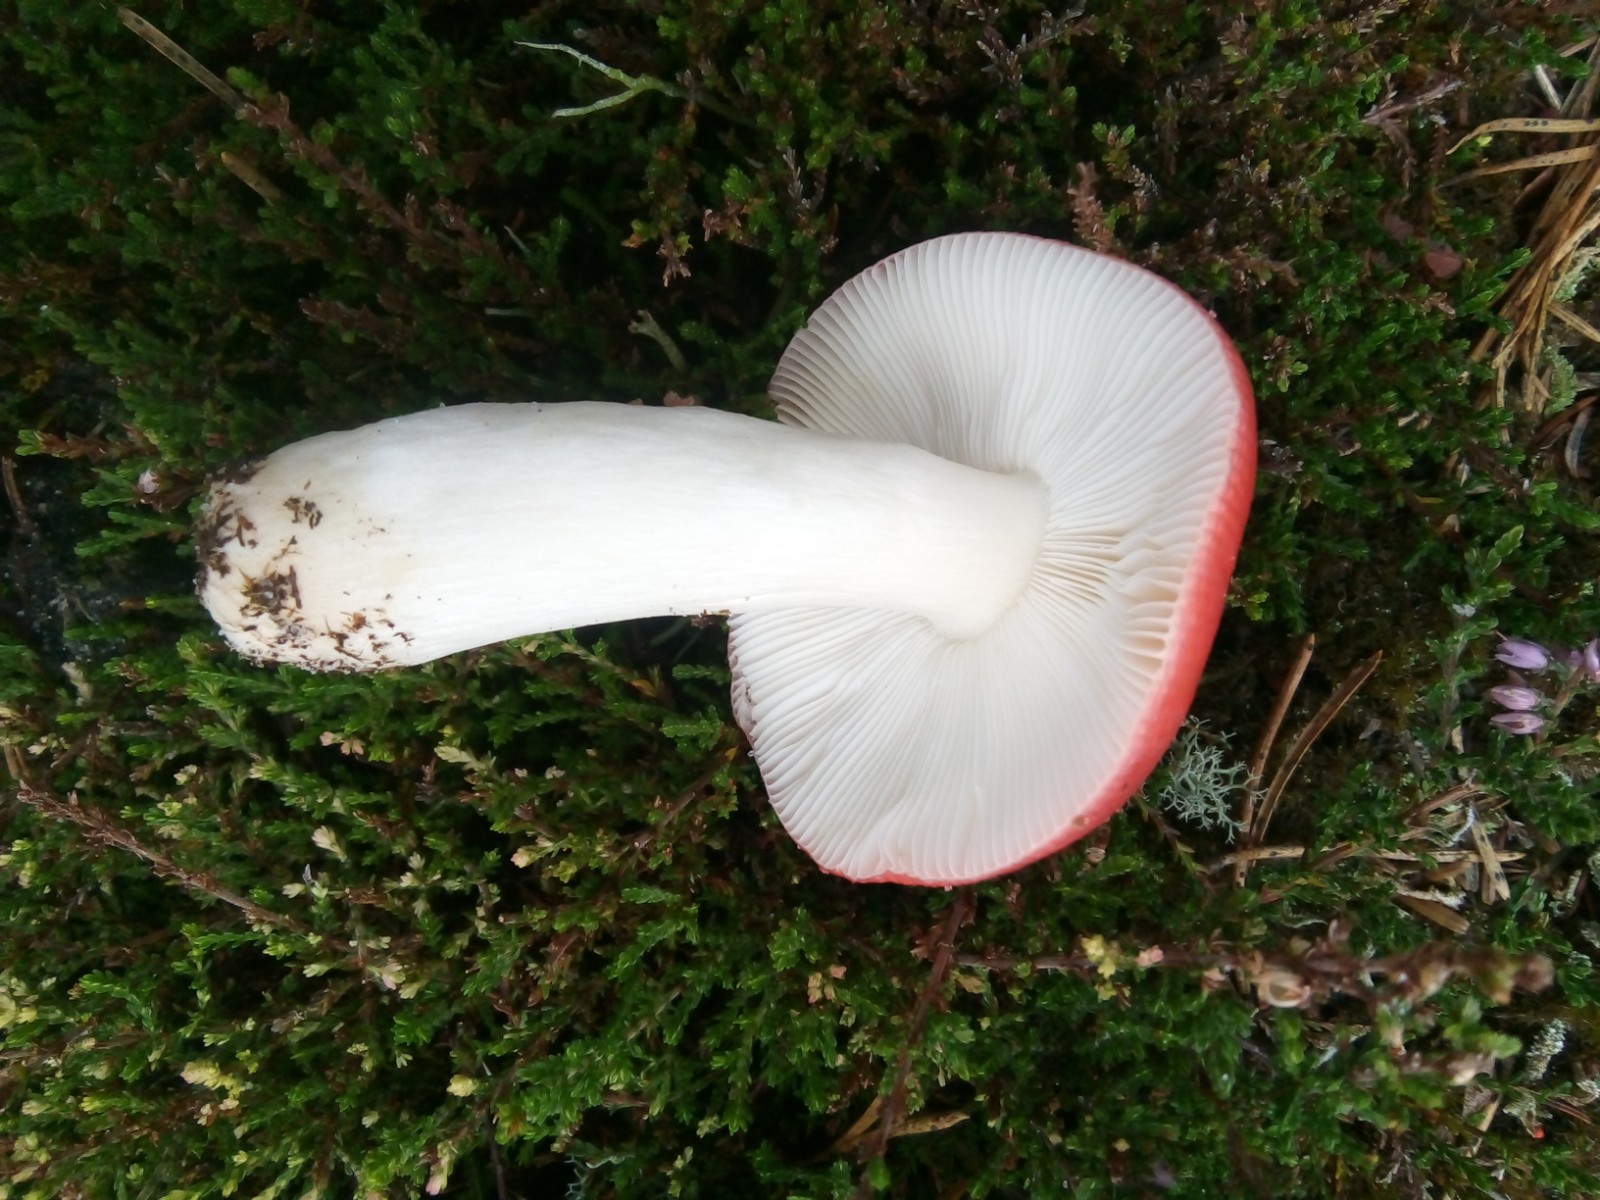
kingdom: Fungi
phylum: Basidiomycota
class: Agaricomycetes
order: Russulales
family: Russulaceae
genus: Russula
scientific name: Russula emetica
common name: stor gift-skørhat
